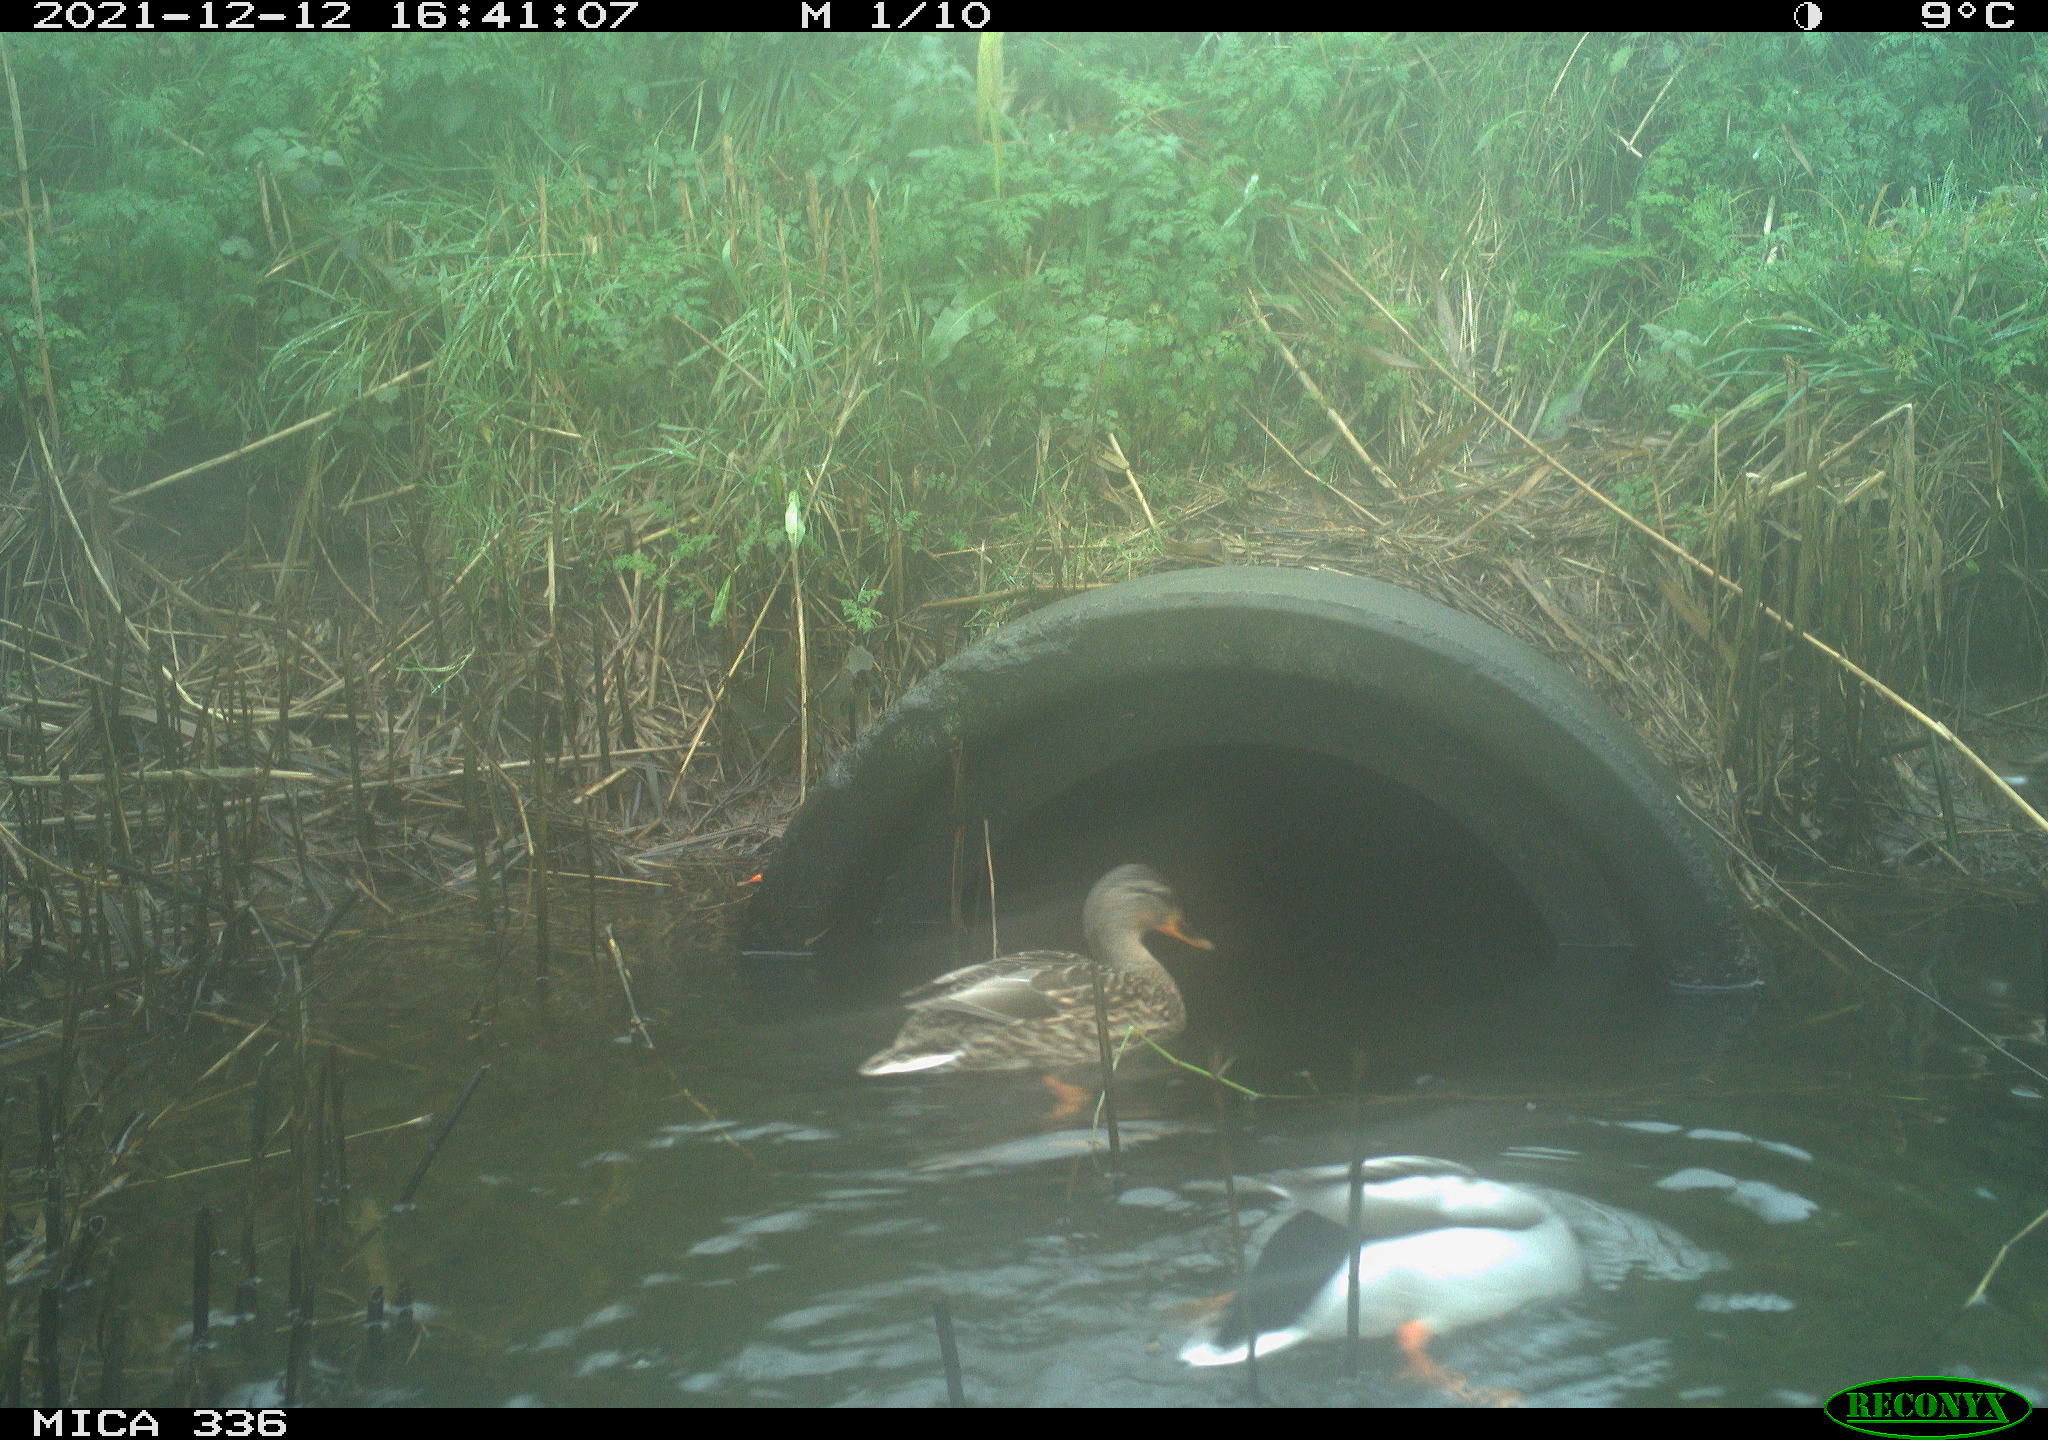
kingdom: Animalia
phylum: Chordata
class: Aves
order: Anseriformes
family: Anatidae
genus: Anas
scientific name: Anas platyrhynchos
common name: Mallard
